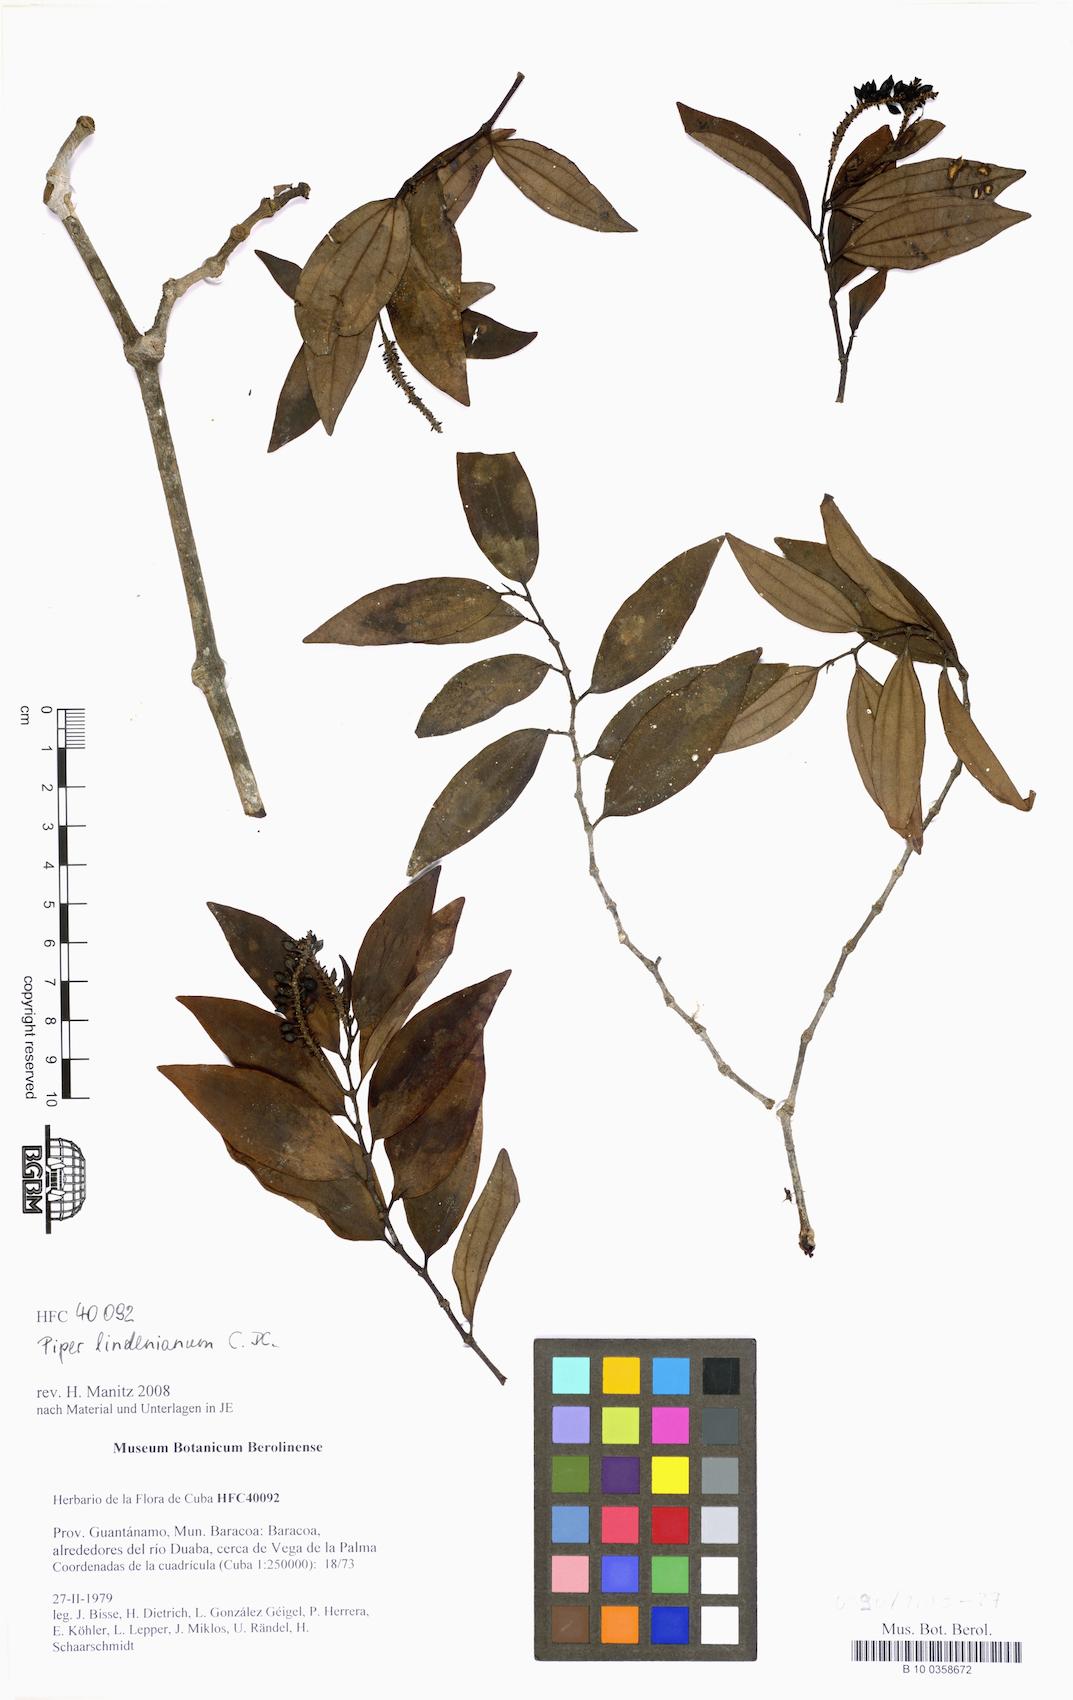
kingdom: Plantae
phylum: Tracheophyta
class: Magnoliopsida
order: Piperales
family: Piperaceae
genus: Piper
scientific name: Piper lindenianum
